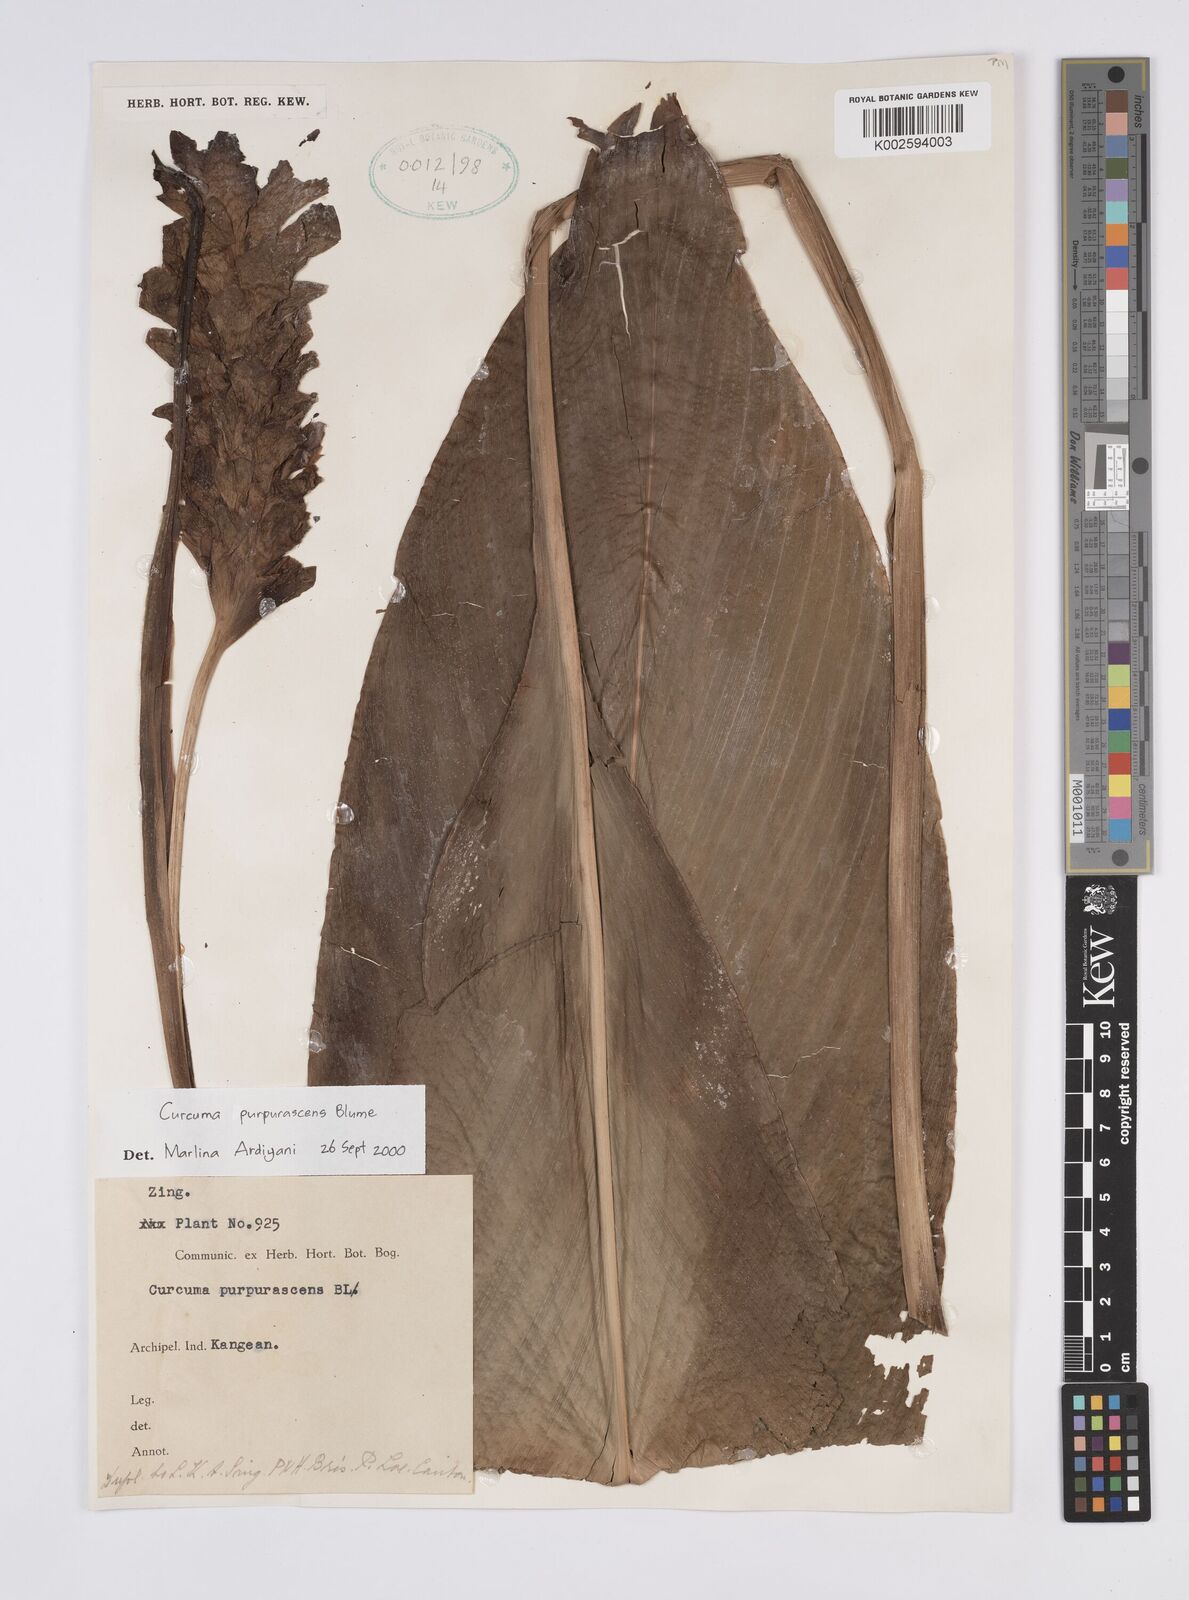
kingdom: Plantae
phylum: Tracheophyta
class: Liliopsida
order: Zingiberales
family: Zingiberaceae
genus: Curcuma
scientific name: Curcuma purpurascens
